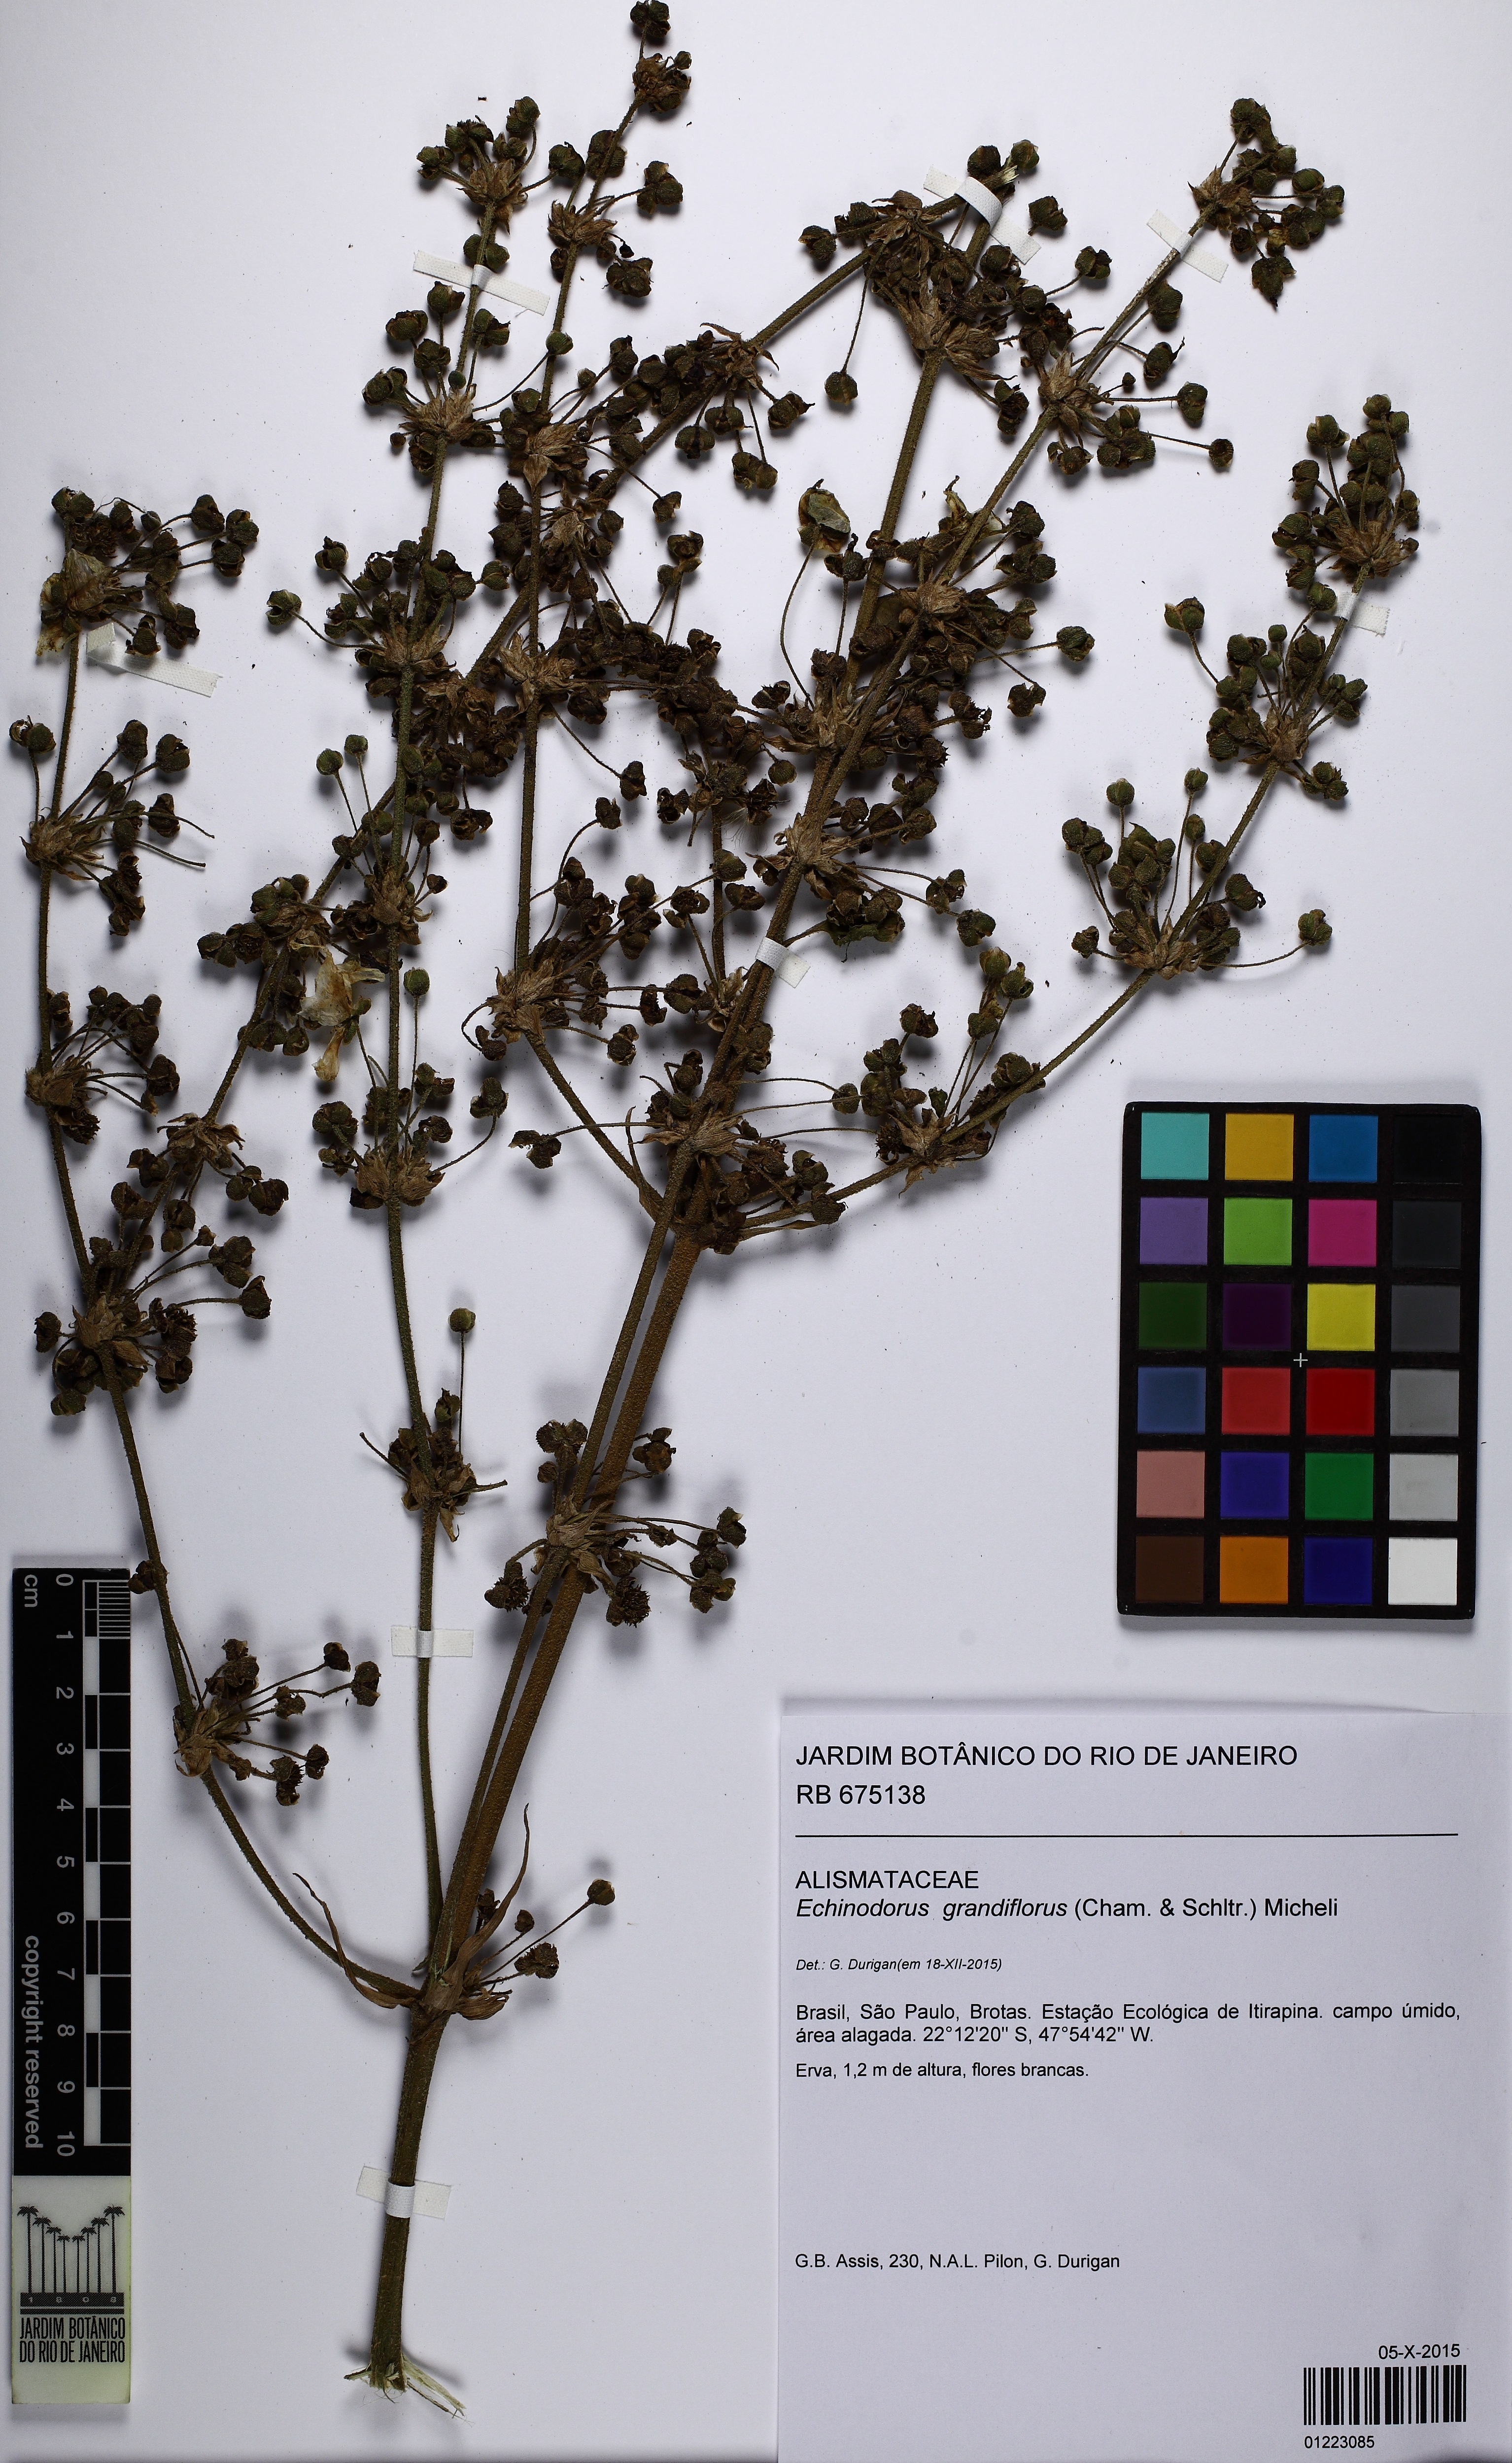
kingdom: Plantae
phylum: Tracheophyta
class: Liliopsida
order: Alismatales
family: Alismataceae
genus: Aquarius
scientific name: Aquarius grandiflorus
